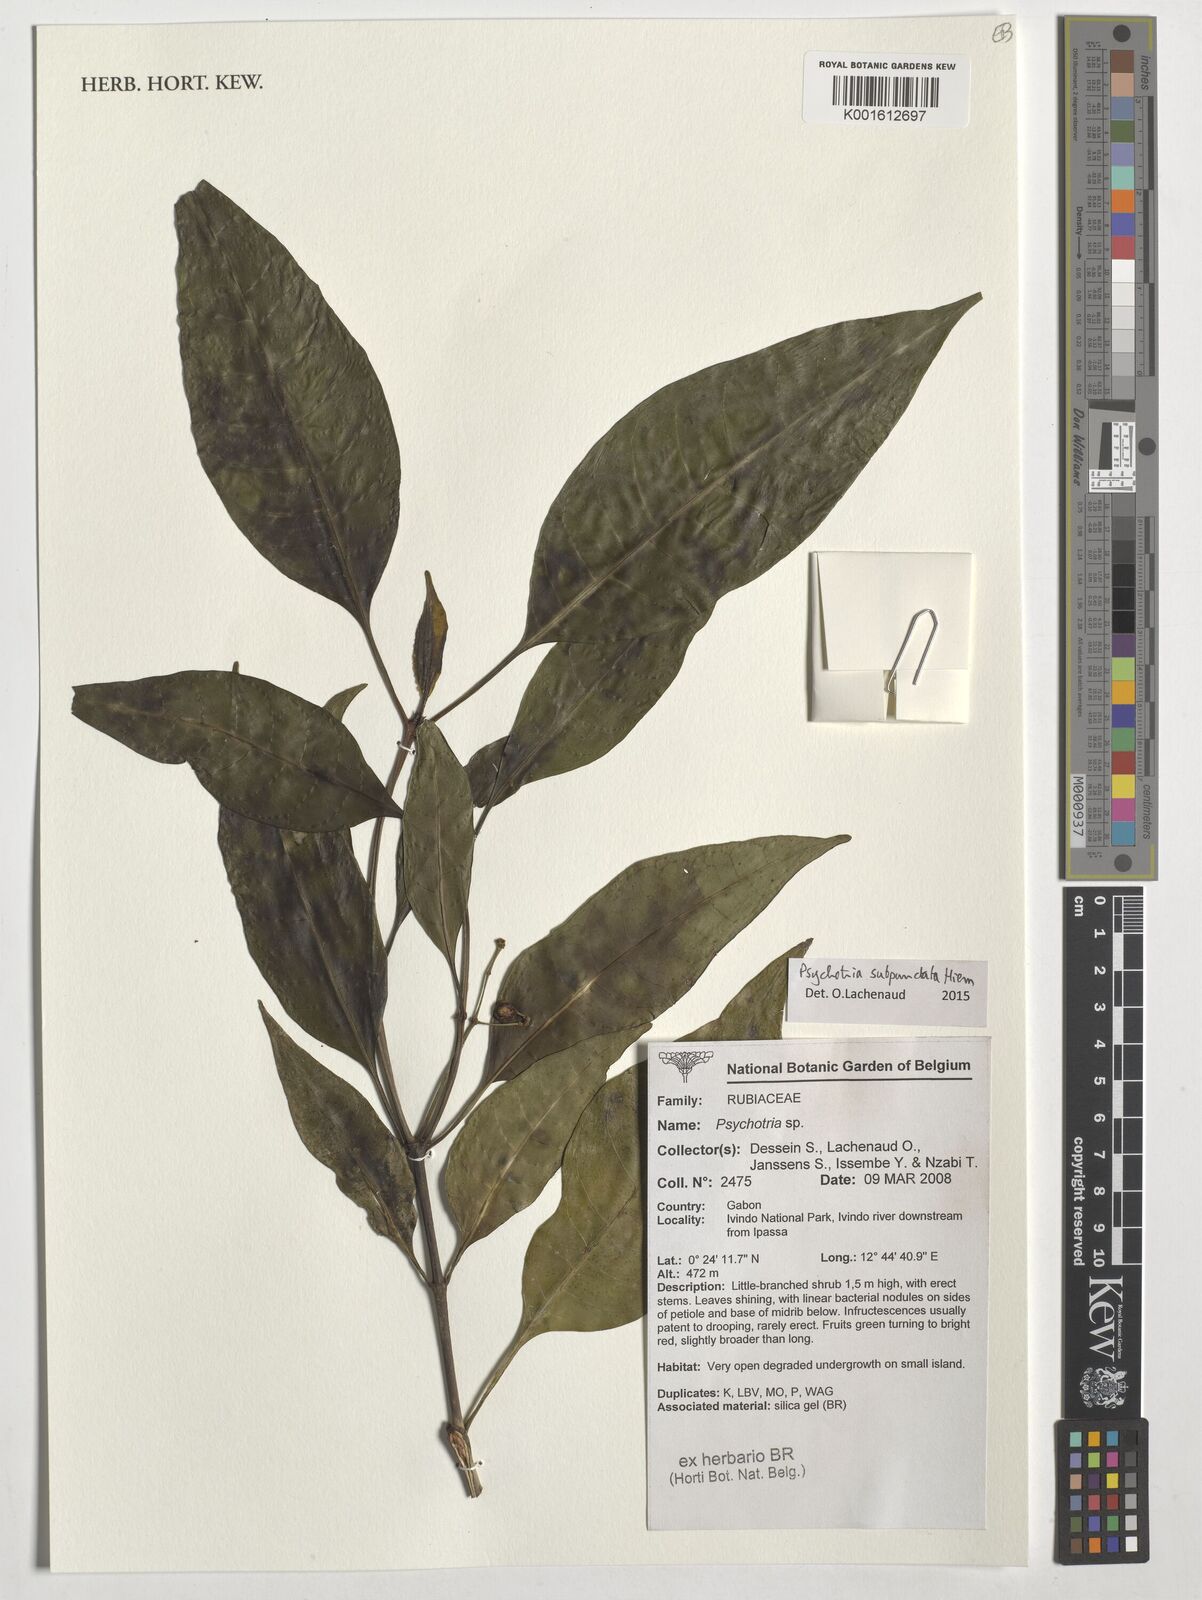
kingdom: Plantae
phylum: Tracheophyta
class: Magnoliopsida
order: Gentianales
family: Rubiaceae
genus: Psychotria
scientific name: Psychotria subpunctata
